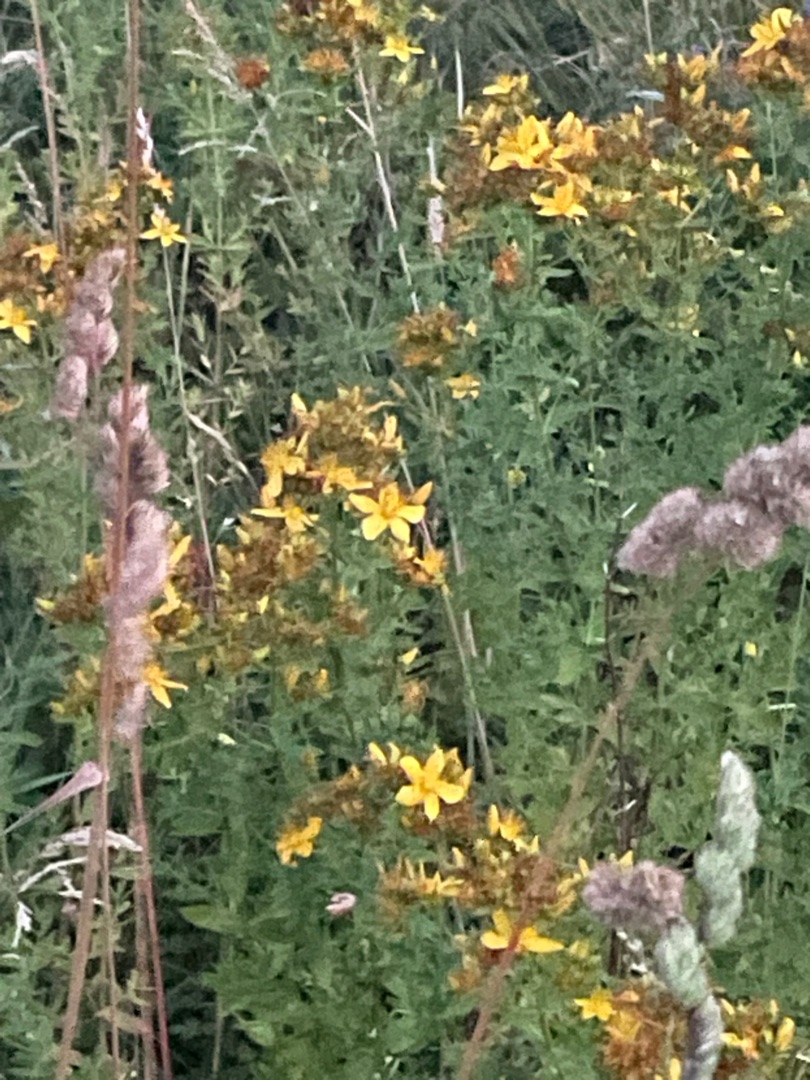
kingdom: Plantae
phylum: Tracheophyta
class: Magnoliopsida
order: Asterales
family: Asteraceae
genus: Jacobaea
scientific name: Jacobaea vulgaris
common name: Eng-brandbæger
